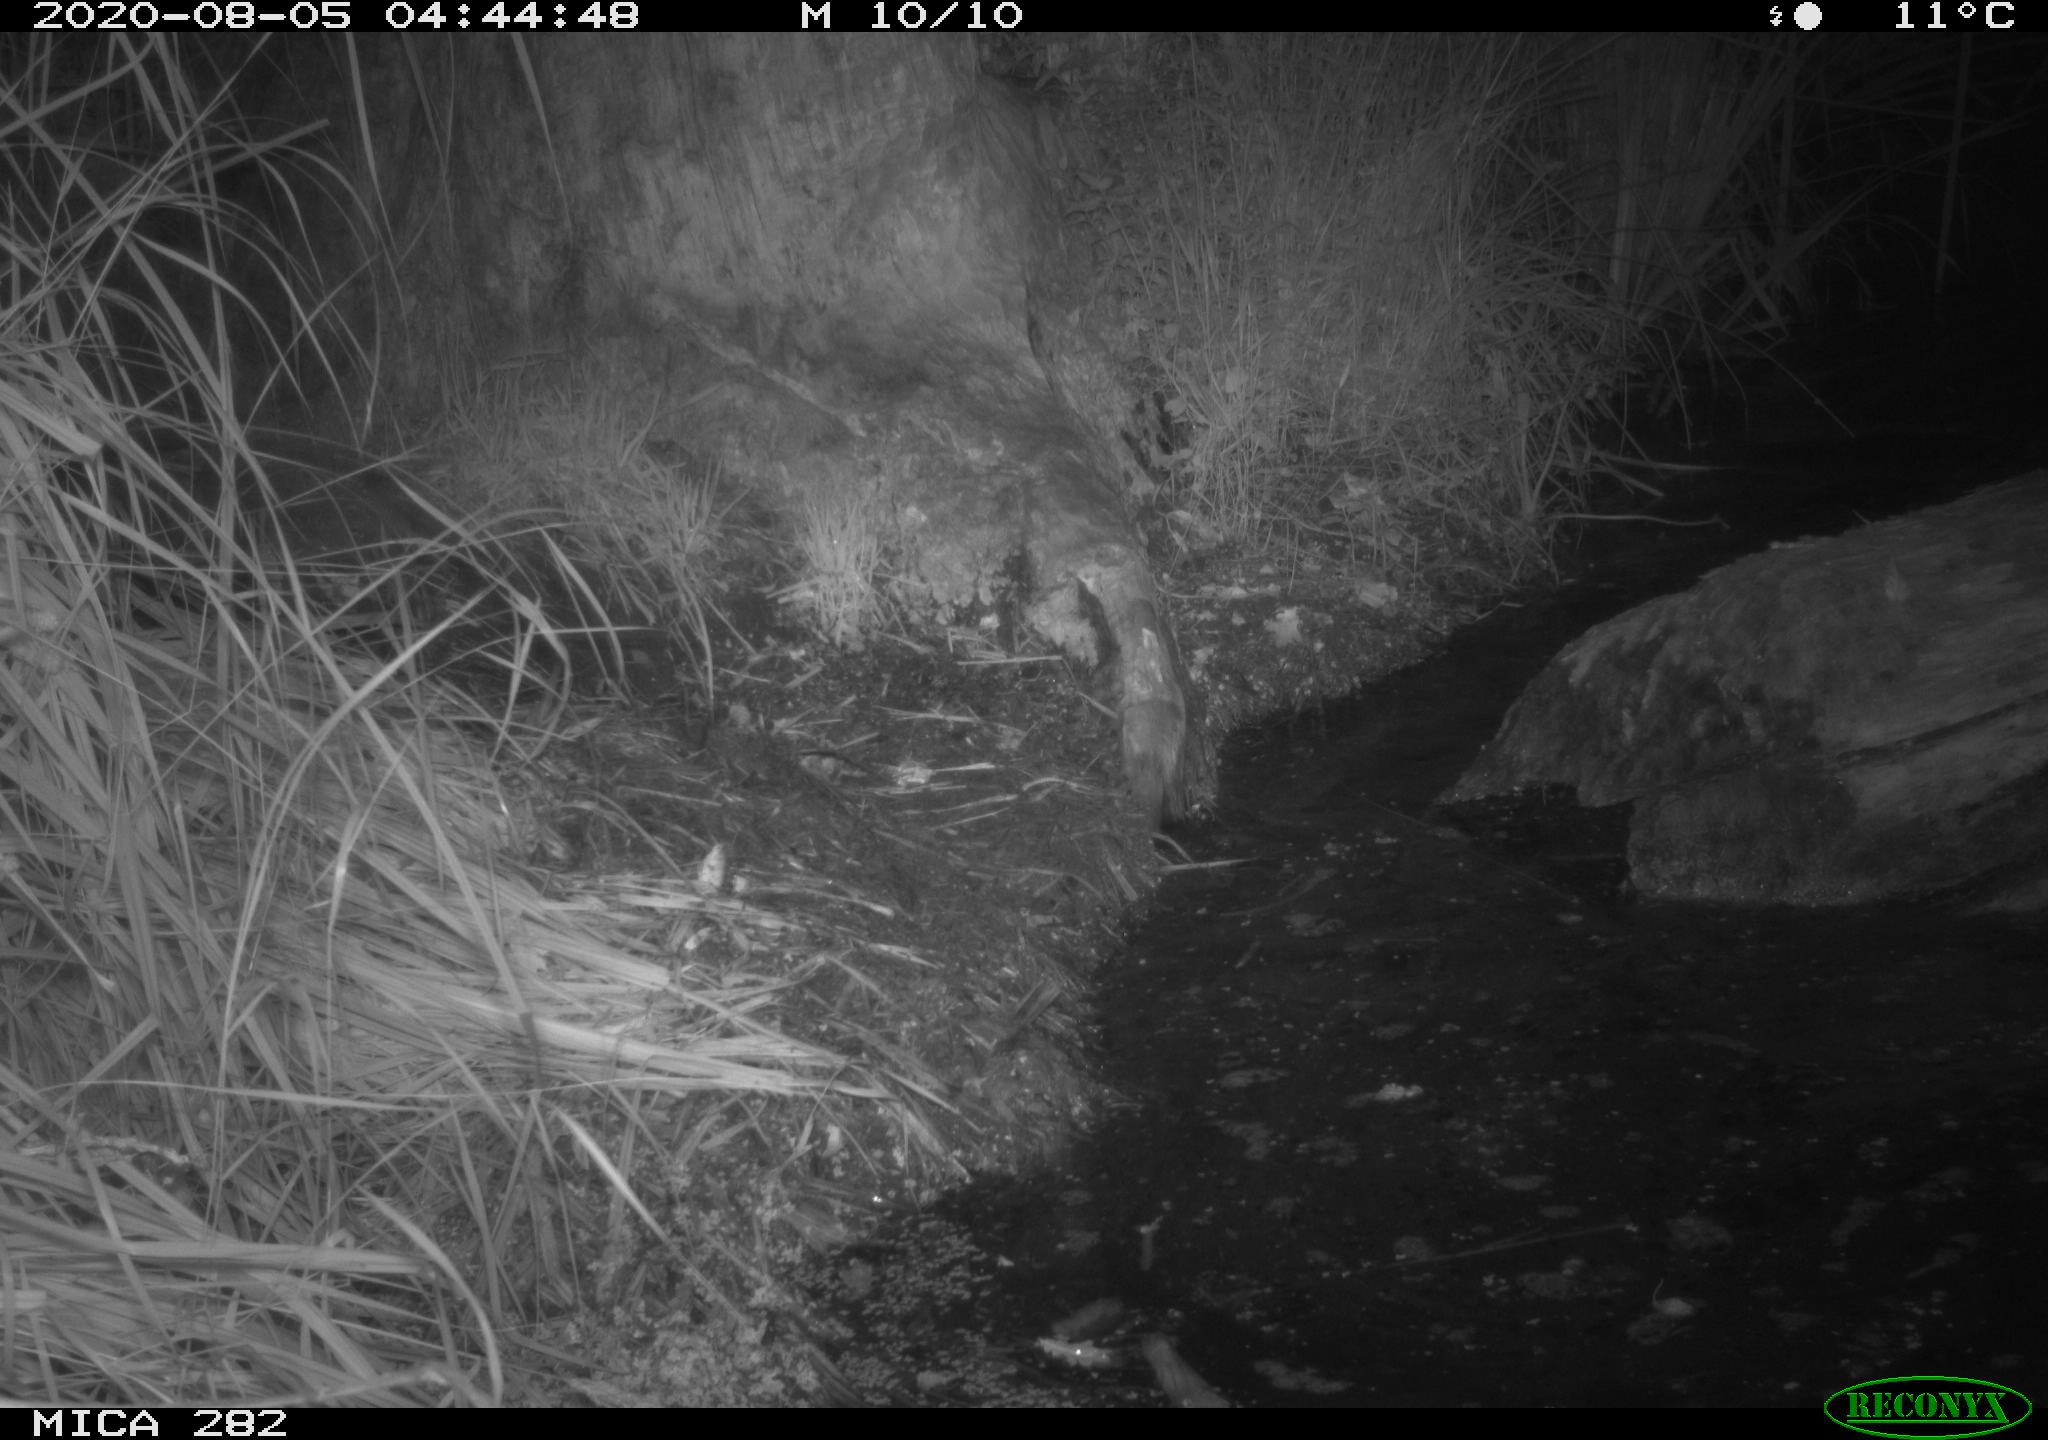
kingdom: Animalia
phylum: Chordata
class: Mammalia
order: Rodentia
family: Castoridae
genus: Castor
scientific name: Castor fiber
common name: Eurasian beaver
